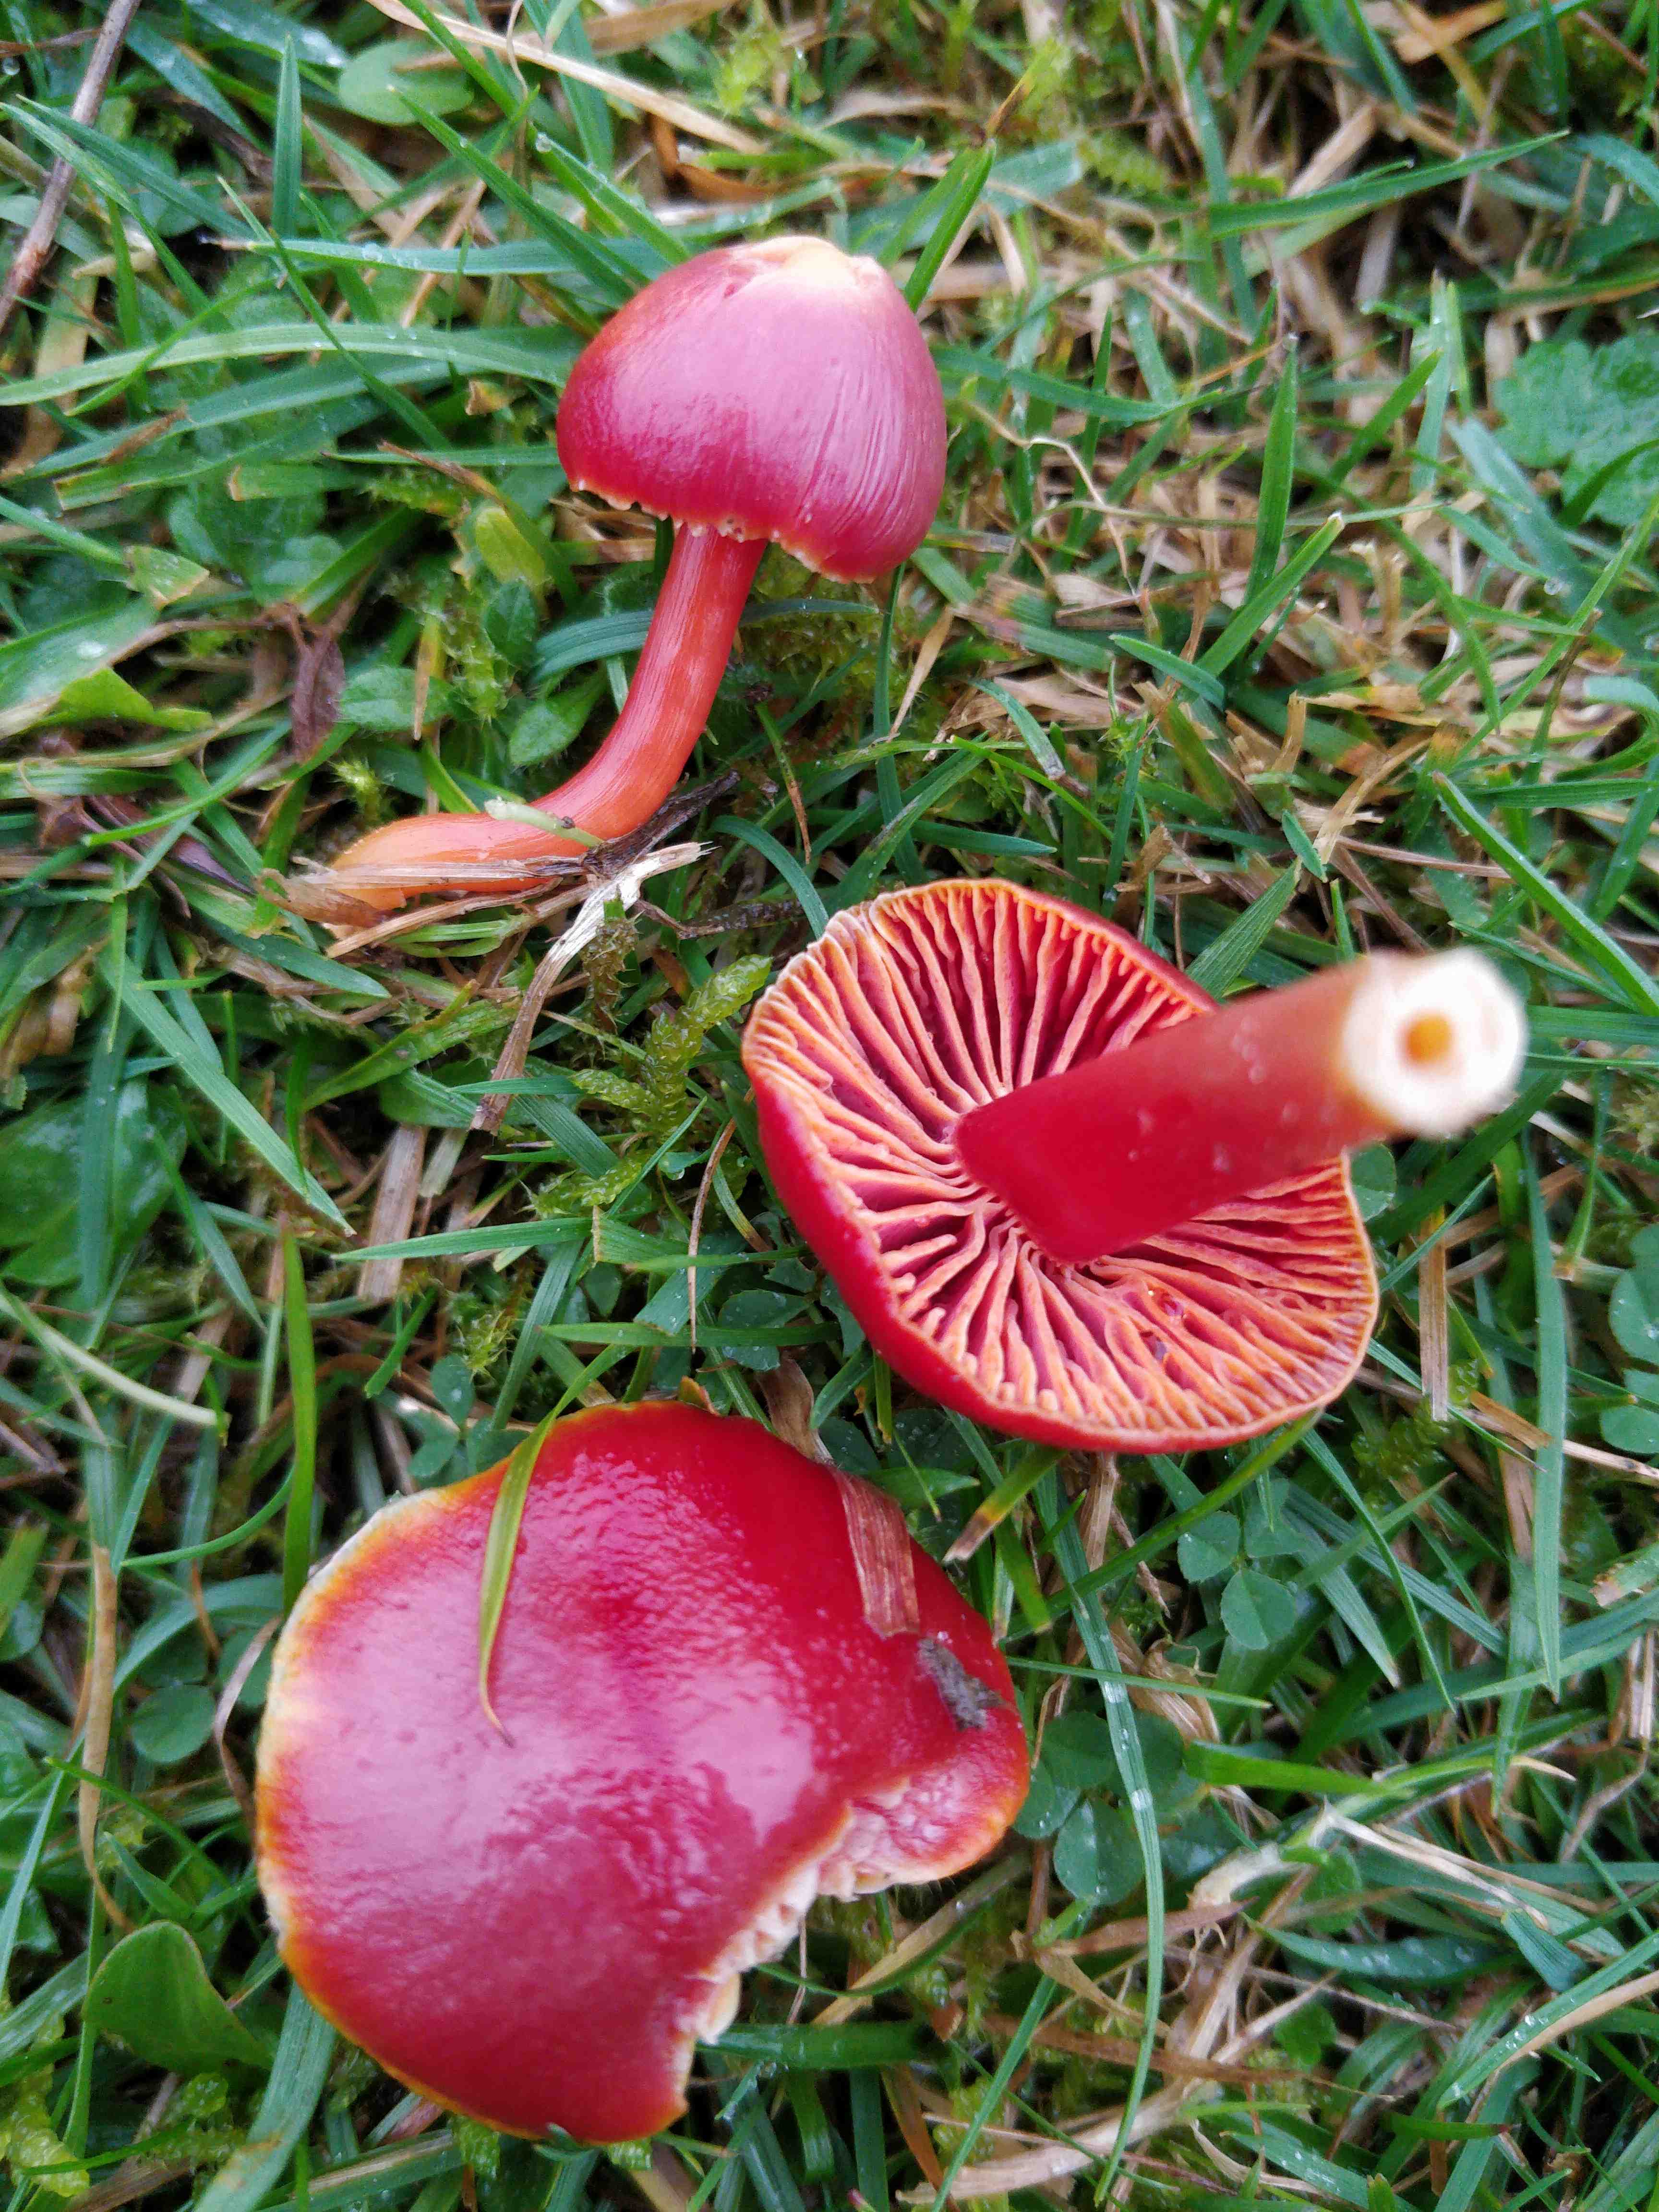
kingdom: Fungi
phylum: Basidiomycota
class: Agaricomycetes
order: Agaricales
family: Hygrophoraceae
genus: Hygrocybe
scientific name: Hygrocybe coccinea
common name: cinnober-vokshat
